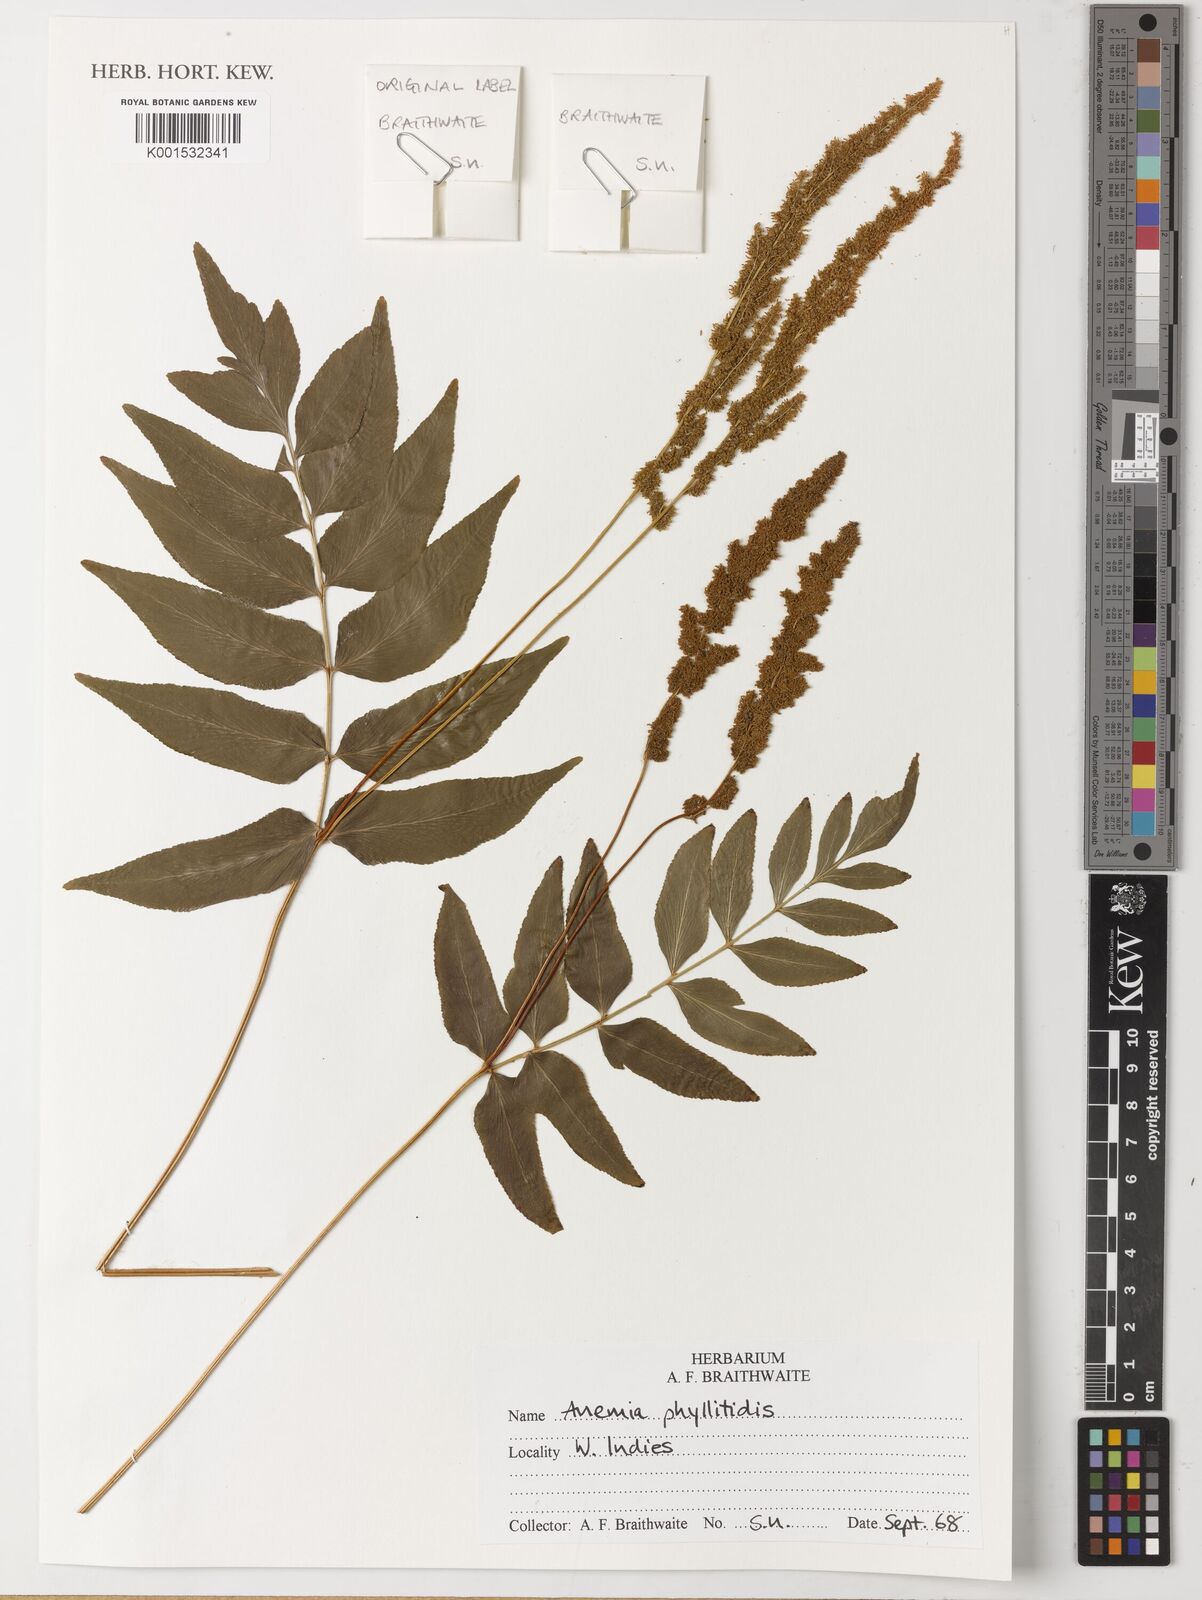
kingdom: Plantae
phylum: Tracheophyta
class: Polypodiopsida
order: Schizaeales
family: Anemiaceae
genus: Anemia
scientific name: Anemia phyllitidis
